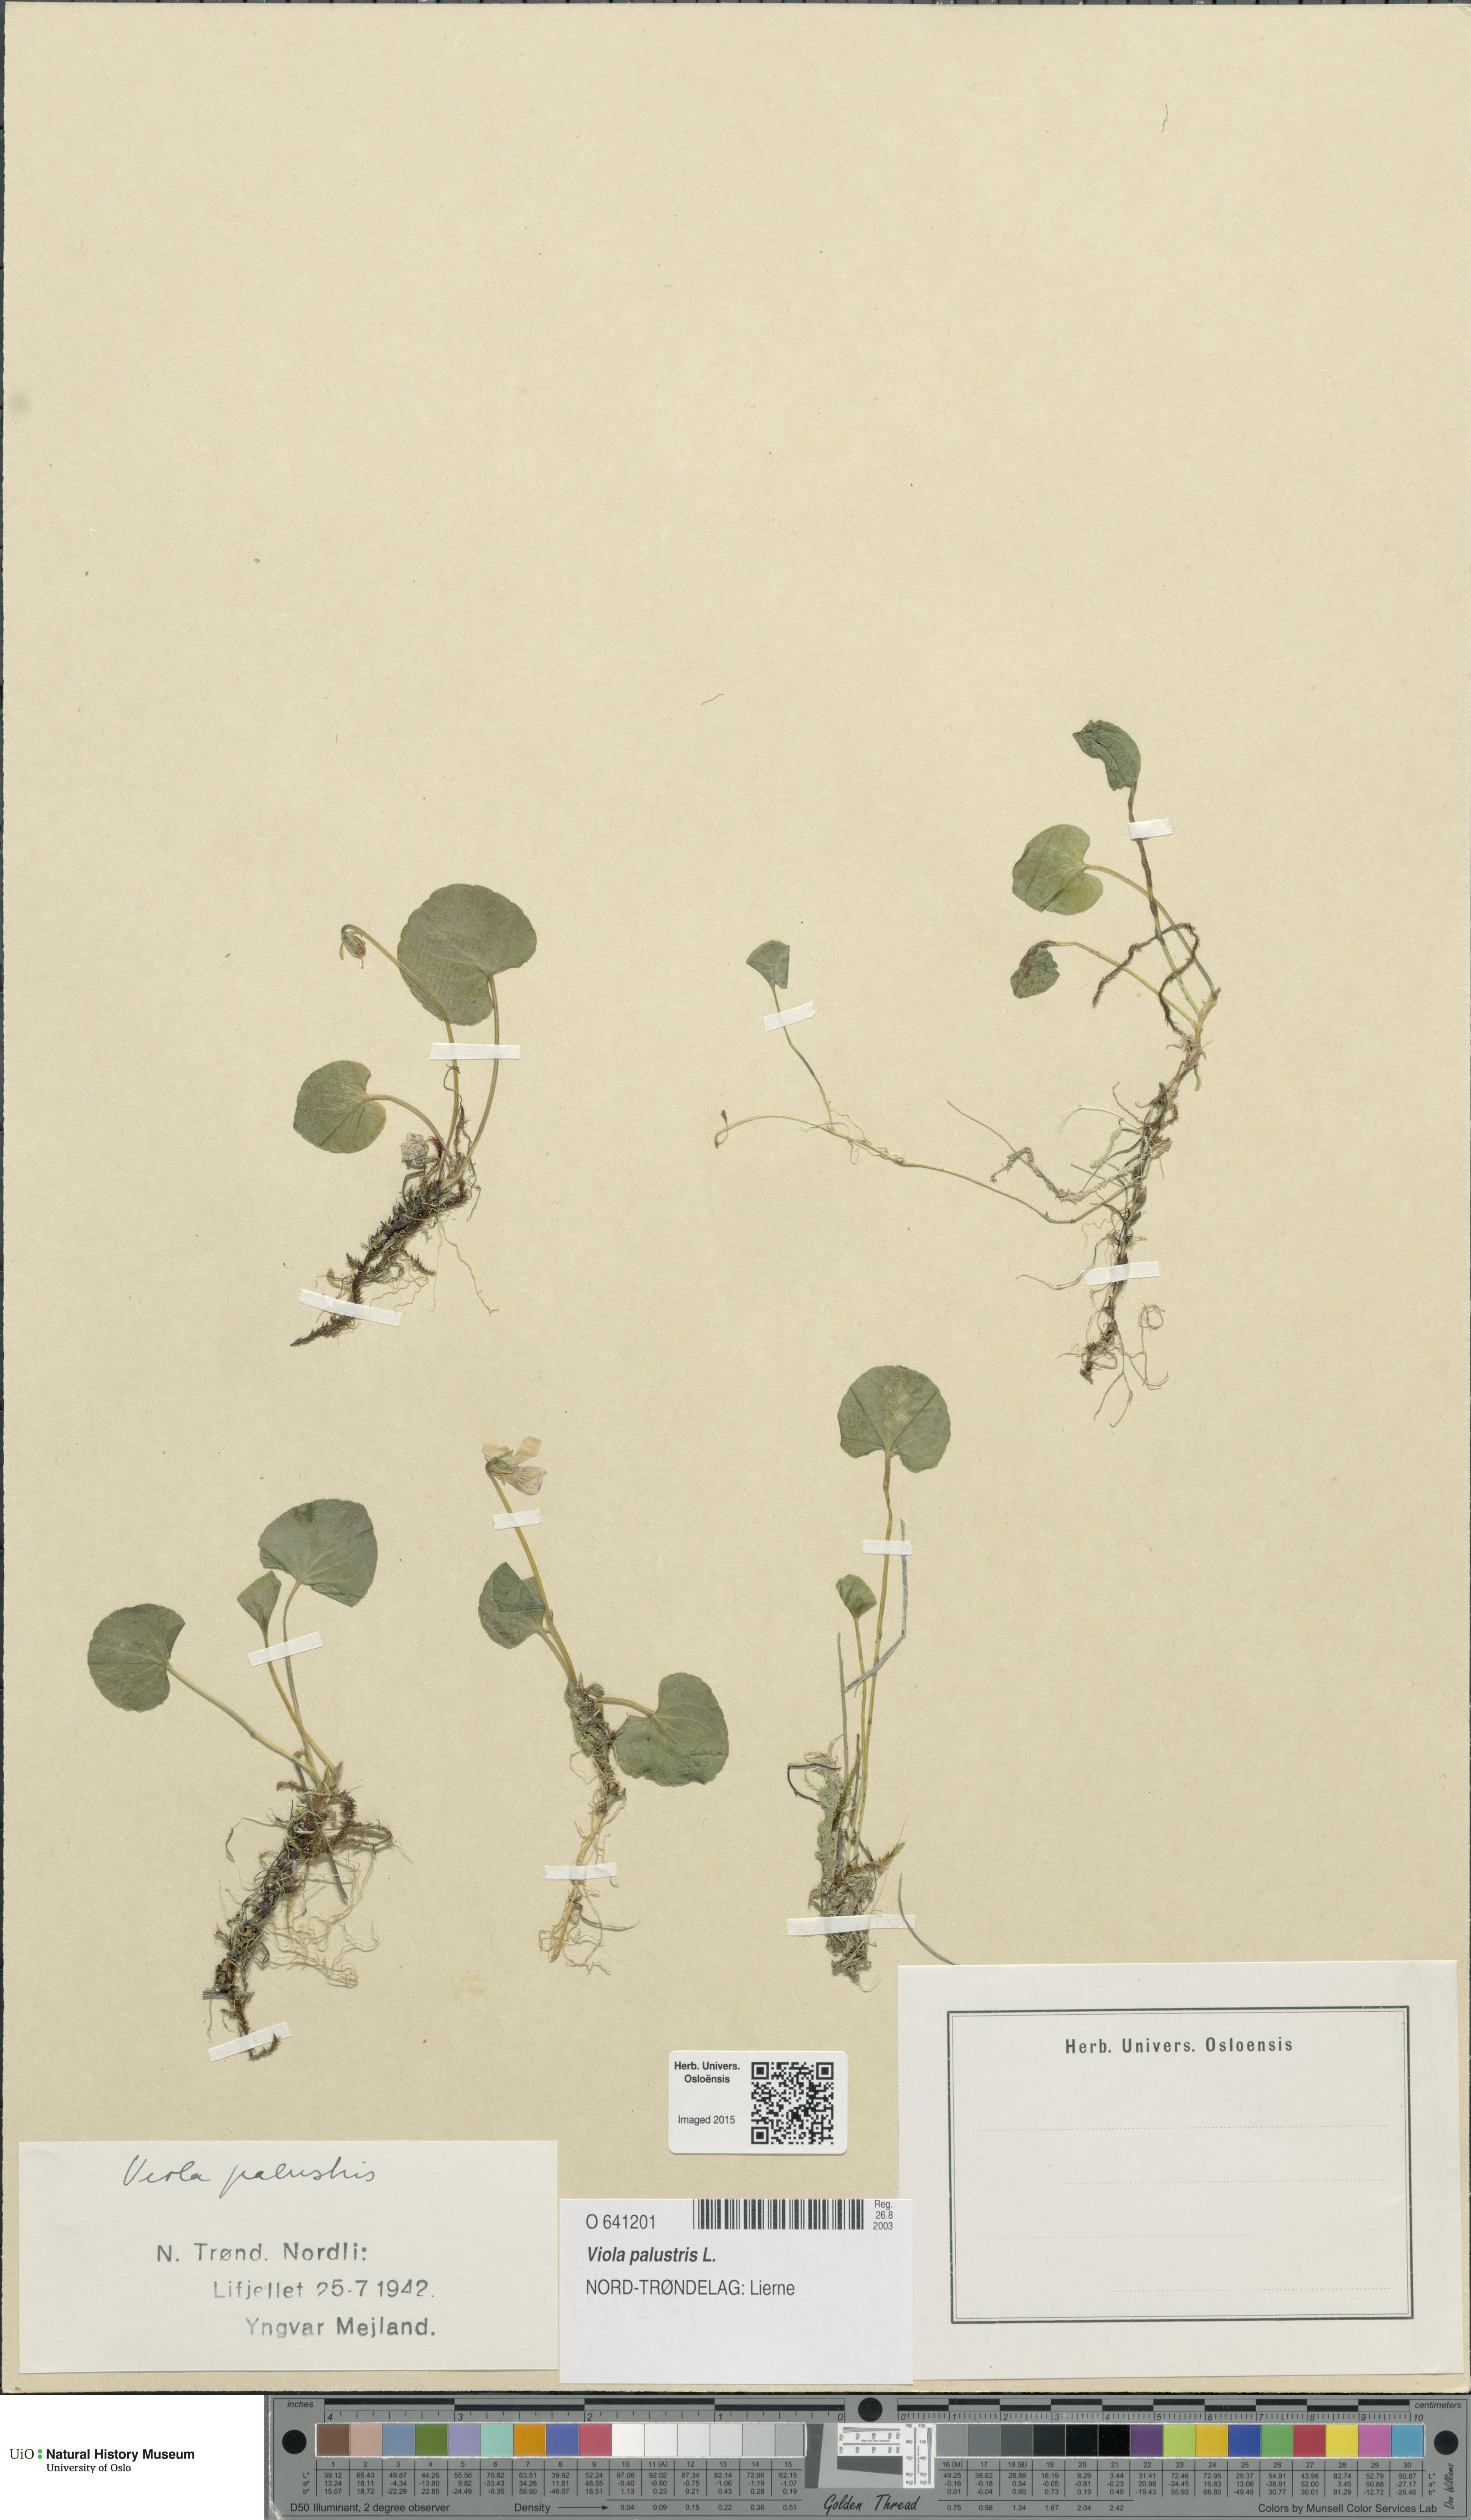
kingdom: Plantae
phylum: Tracheophyta
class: Magnoliopsida
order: Malpighiales
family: Violaceae
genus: Viola
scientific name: Viola palustris
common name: Marsh violet
